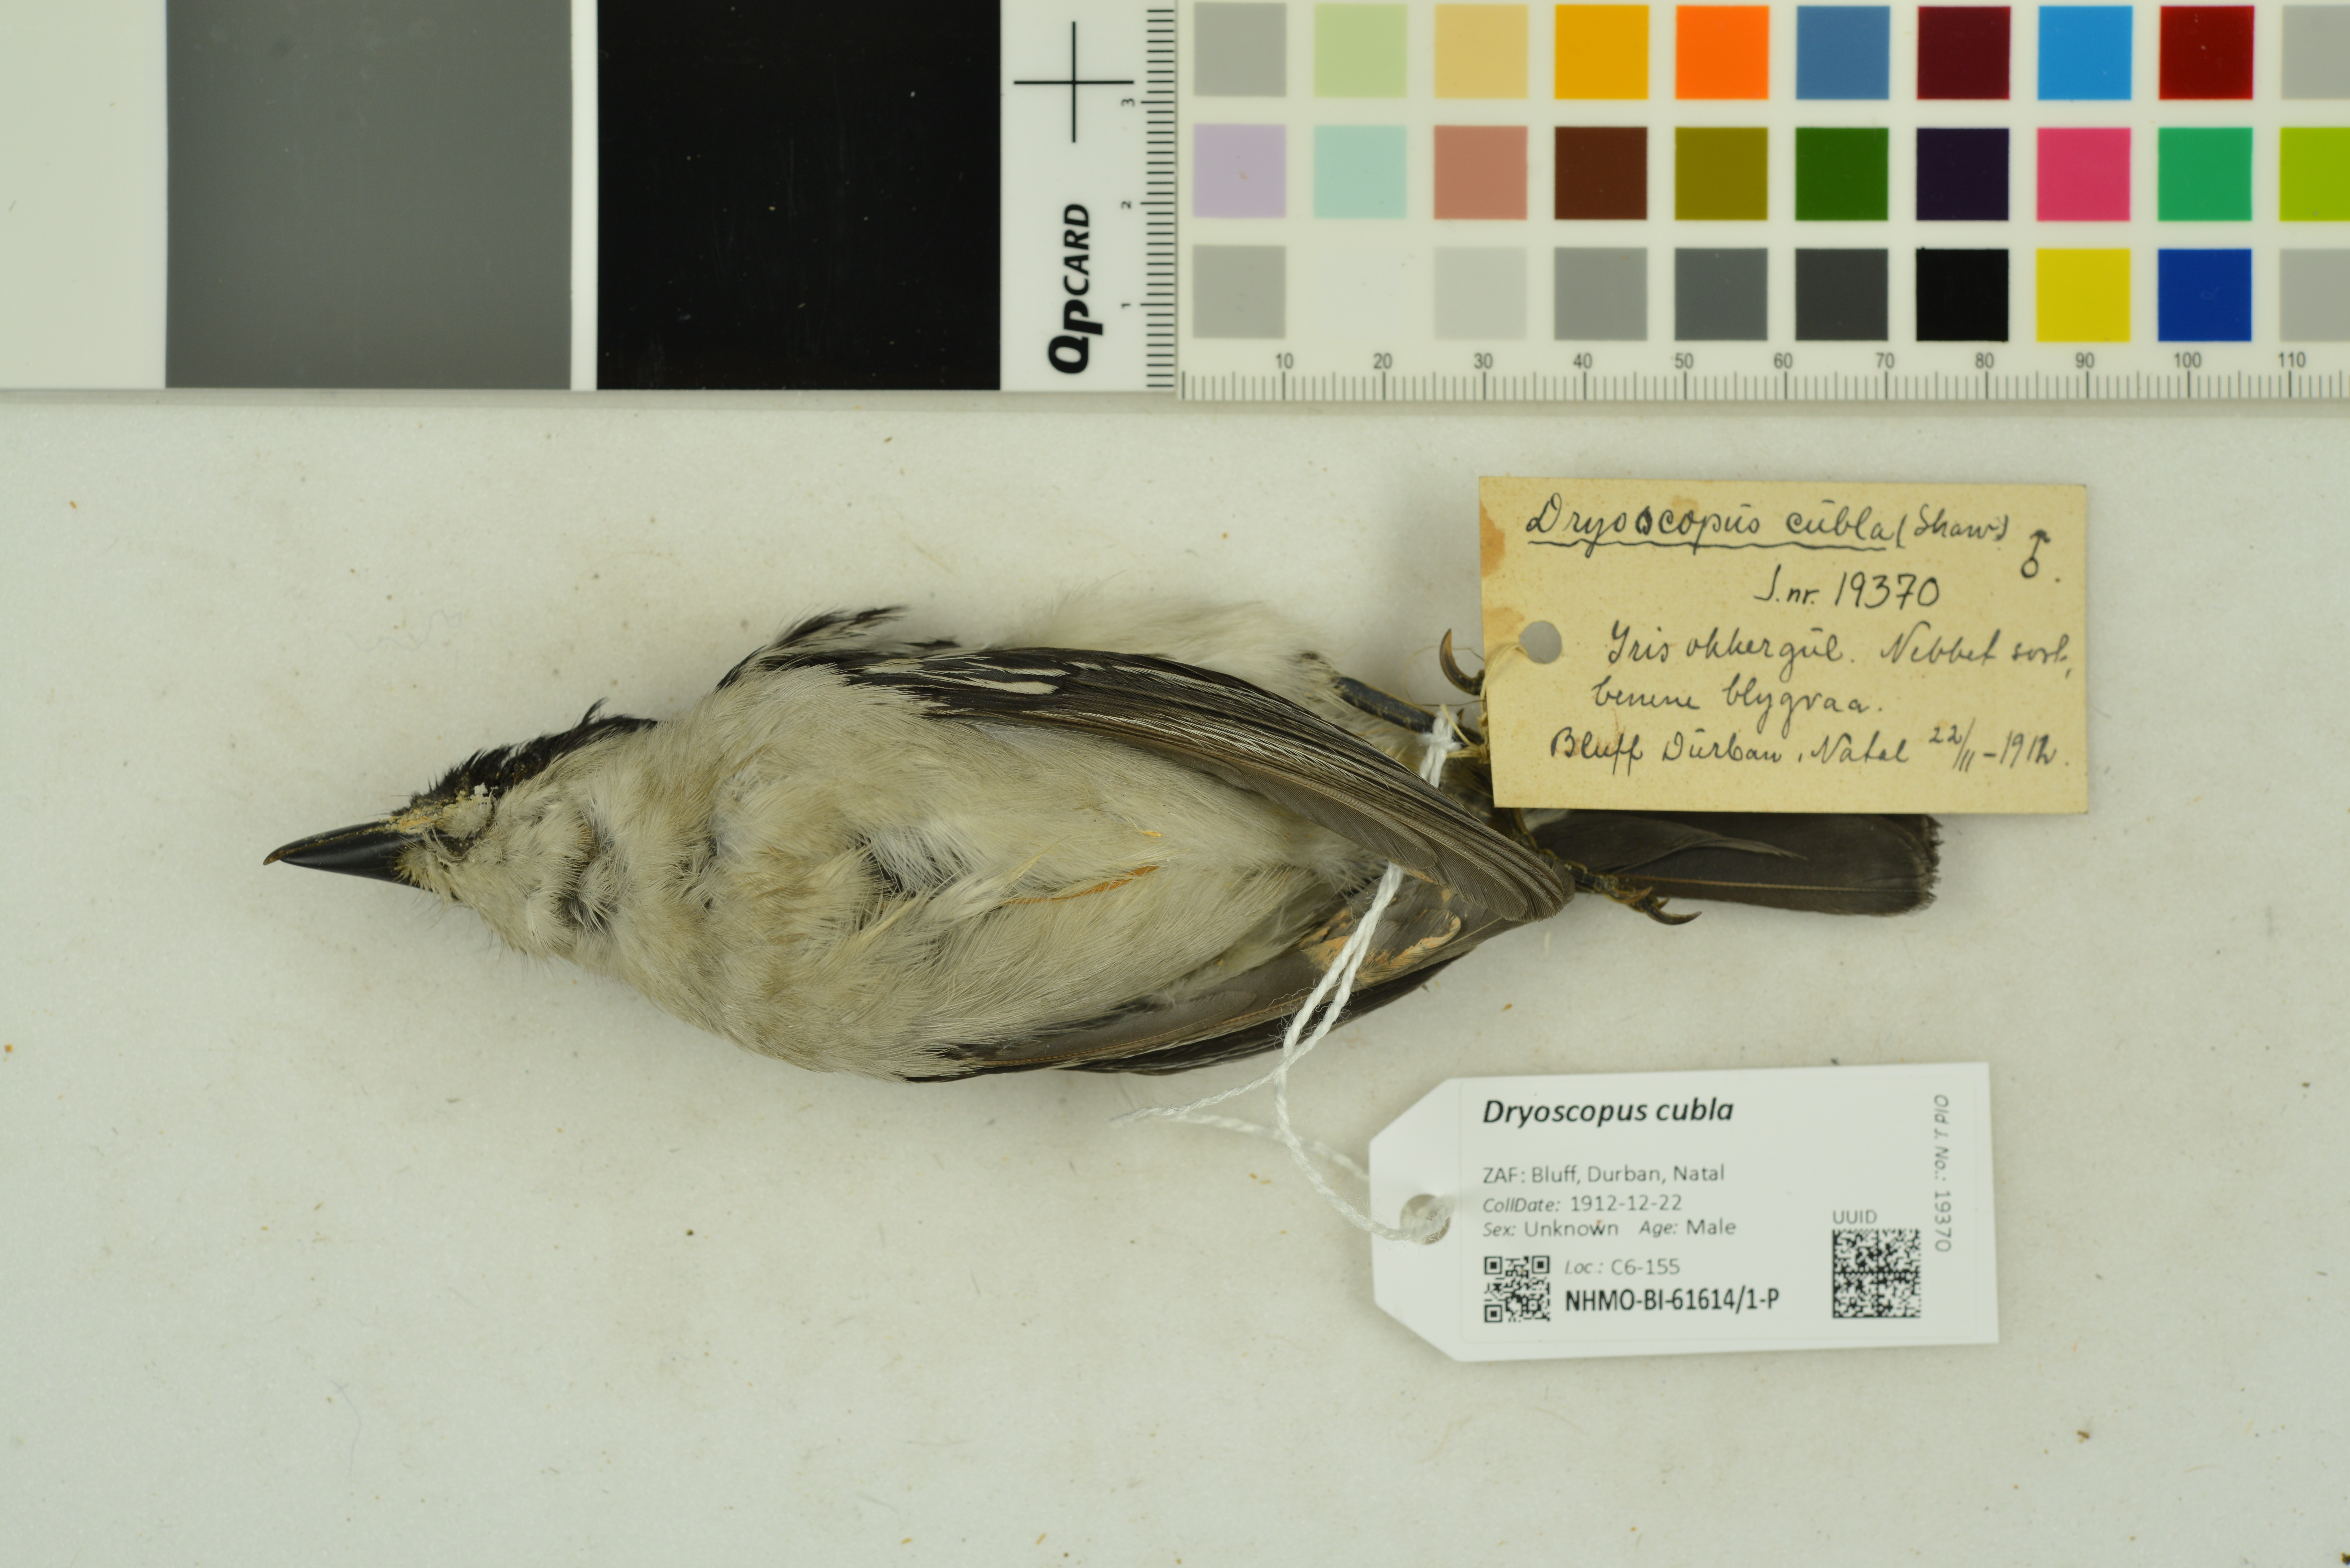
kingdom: Animalia
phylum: Chordata
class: Aves
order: Passeriformes
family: Malaconotidae
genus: Dryoscopus
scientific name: Dryoscopus cubla
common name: Black-backed puffback
